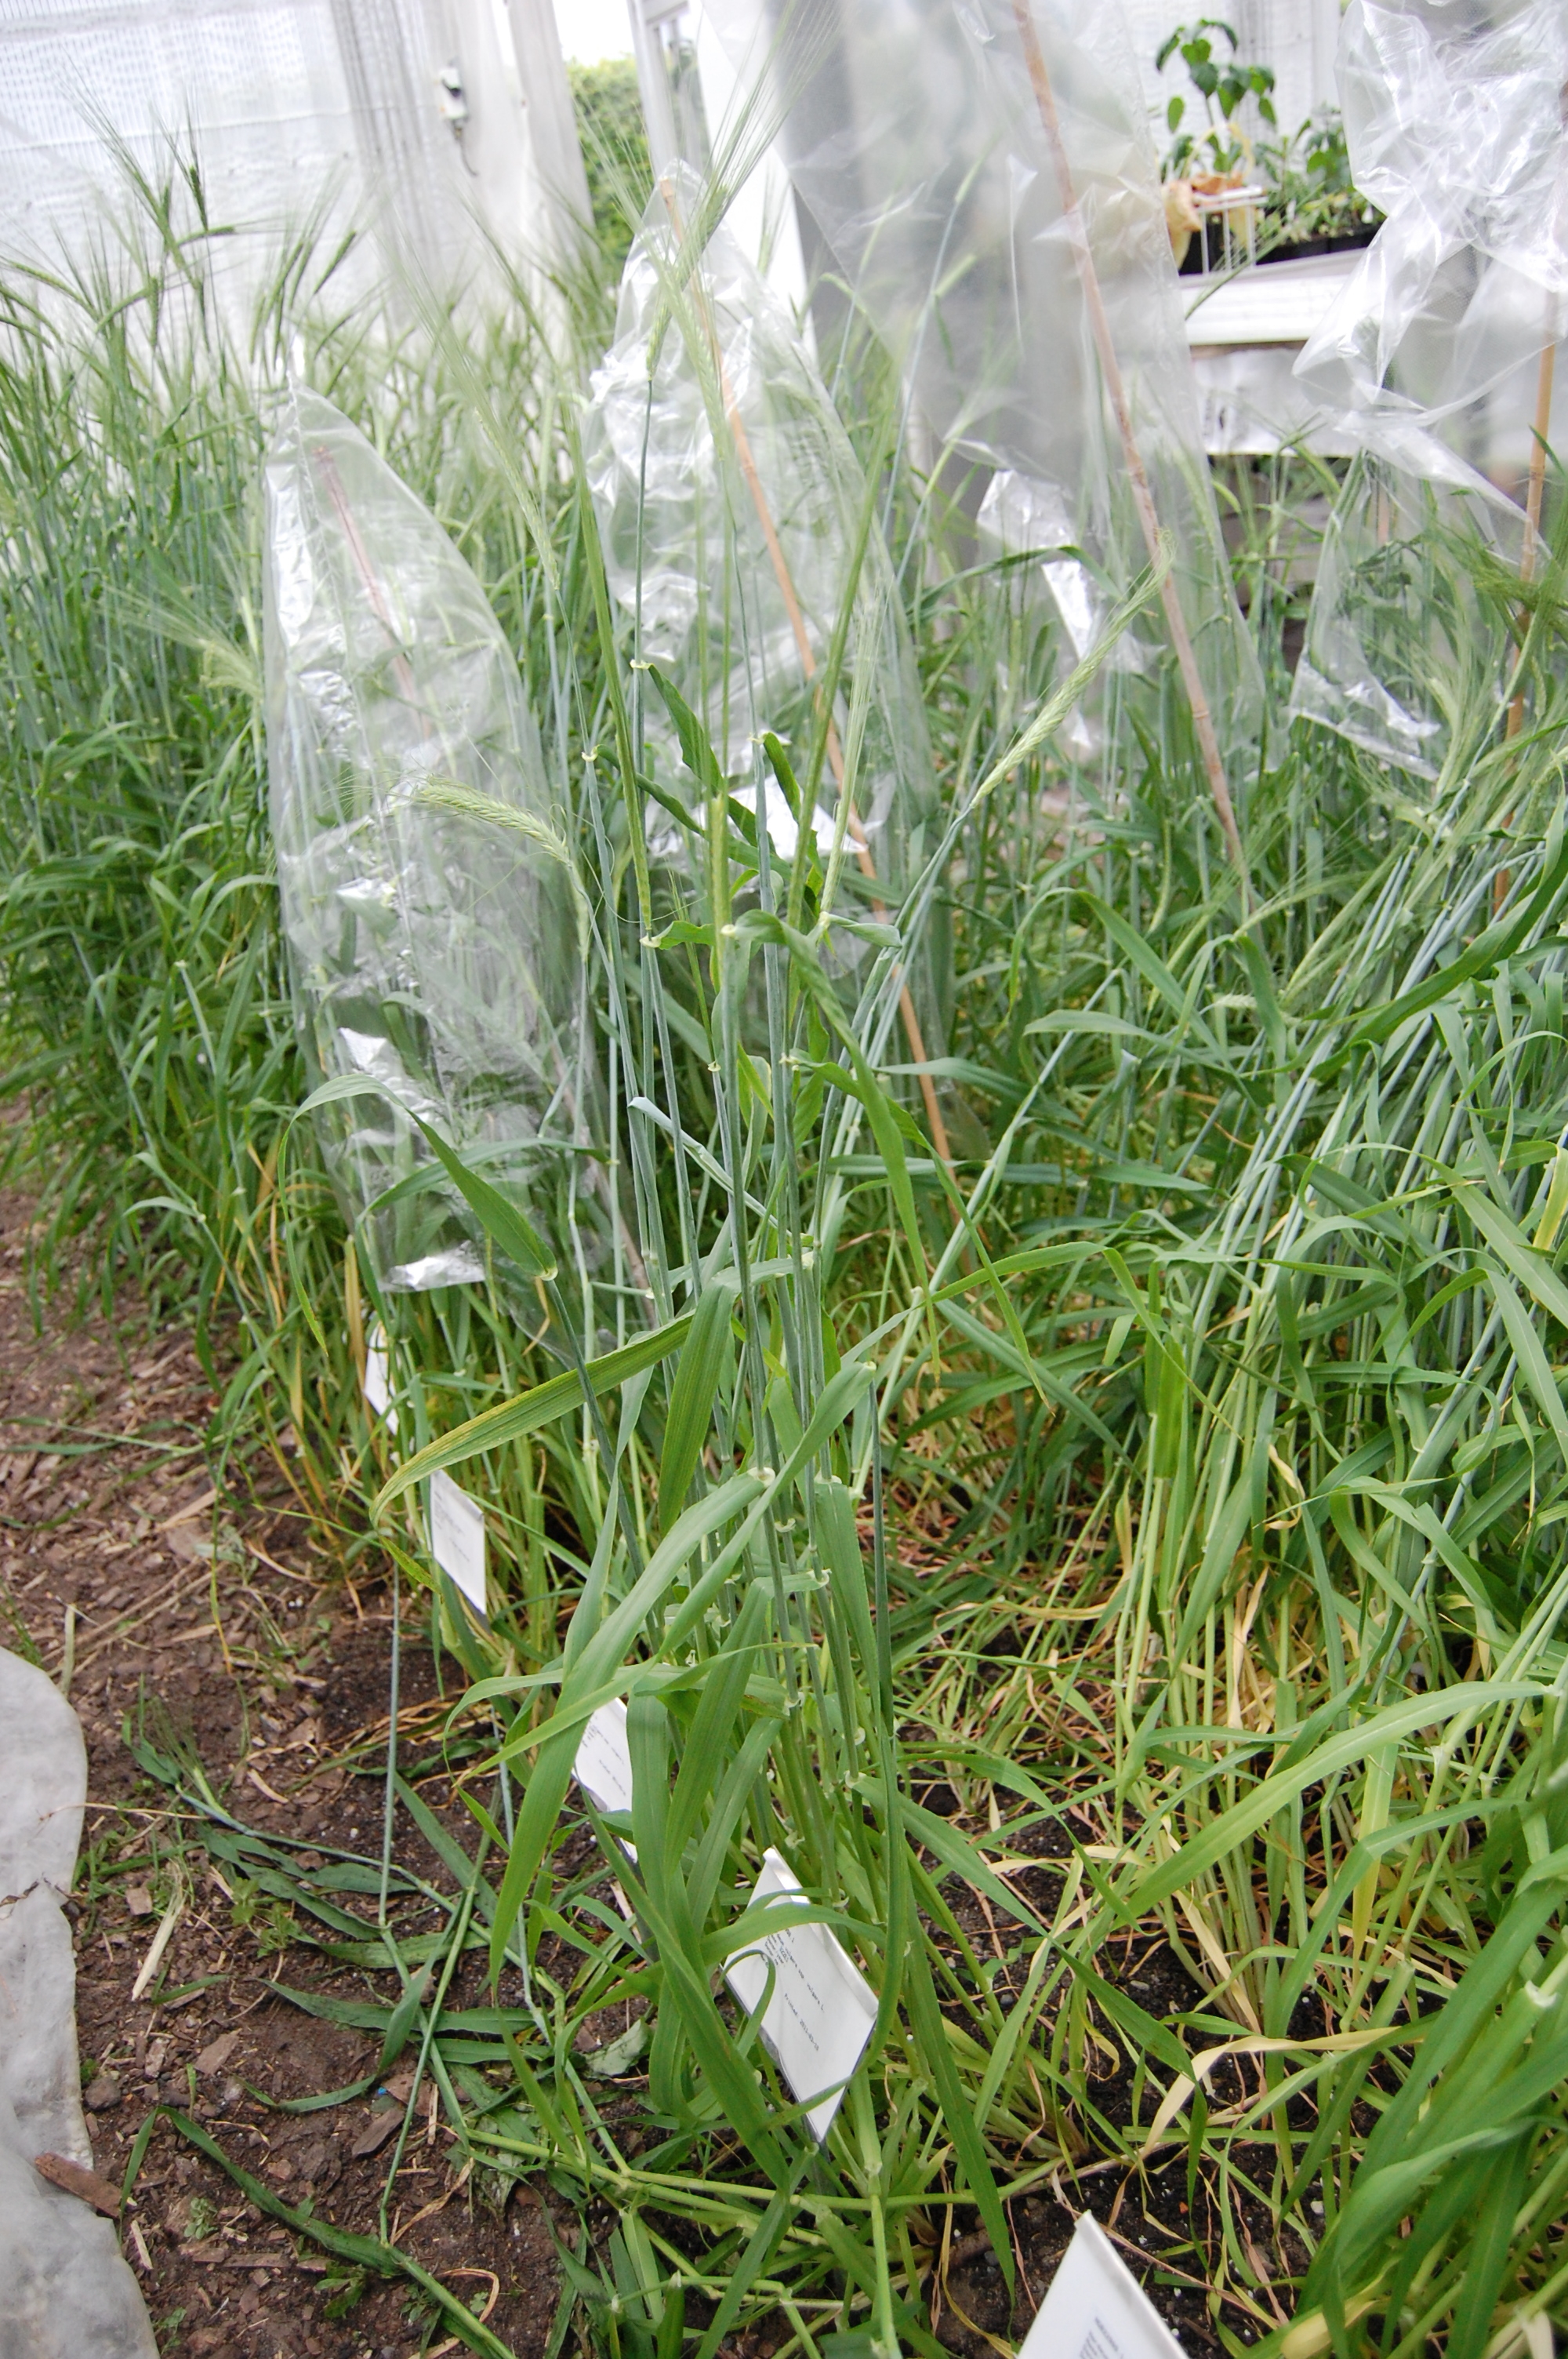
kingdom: Plantae
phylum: Tracheophyta
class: Liliopsida
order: Poales
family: Poaceae
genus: Hordeum
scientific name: Hordeum vulgare
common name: Common barley
